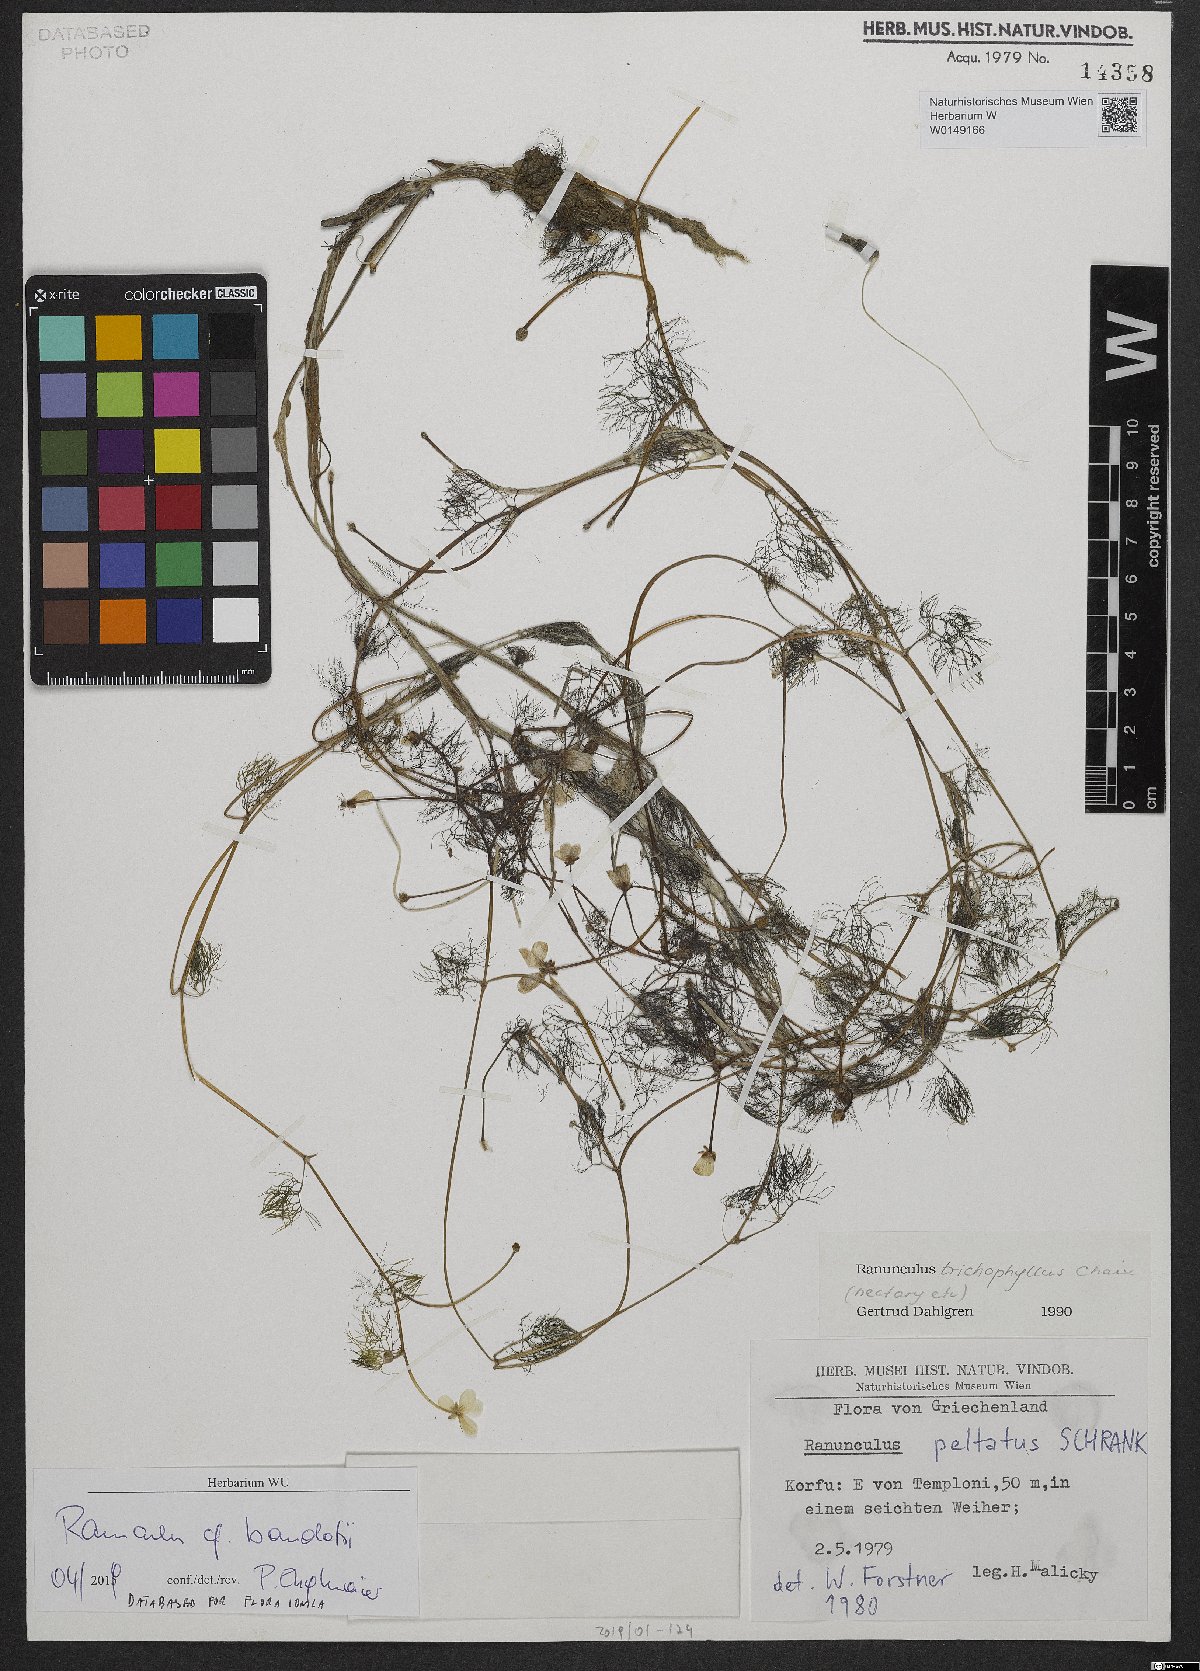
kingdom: Plantae
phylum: Tracheophyta
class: Magnoliopsida
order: Ranunculales
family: Ranunculaceae
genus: Ranunculus
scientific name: Ranunculus peltatus
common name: Pond water-crowfoot
